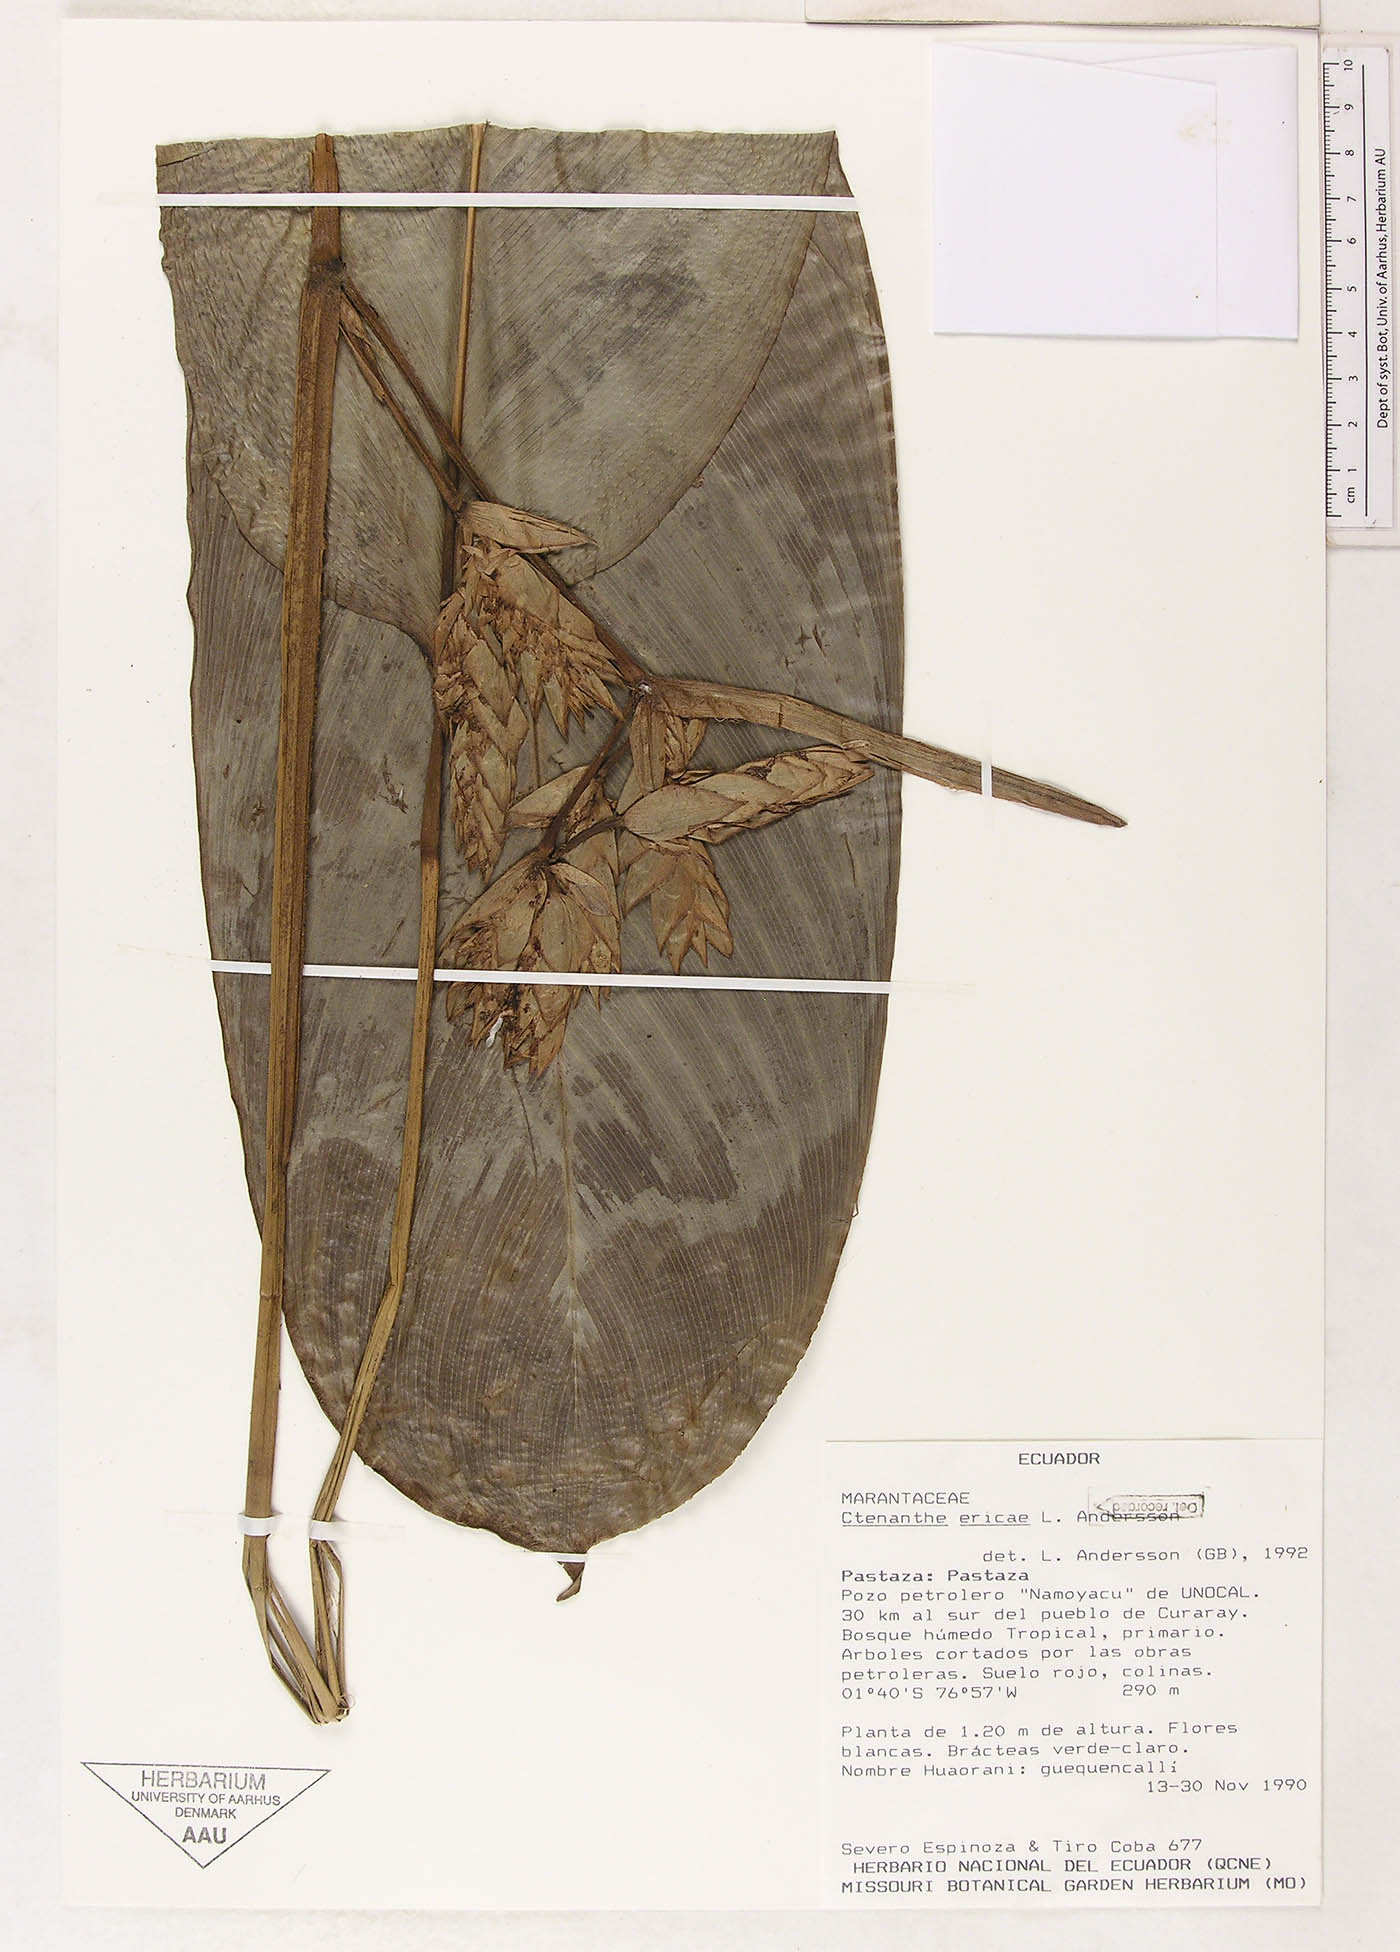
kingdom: Plantae
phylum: Tracheophyta
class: Liliopsida
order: Zingiberales
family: Marantaceae
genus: Ctenanthe
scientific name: Ctenanthe ericae
